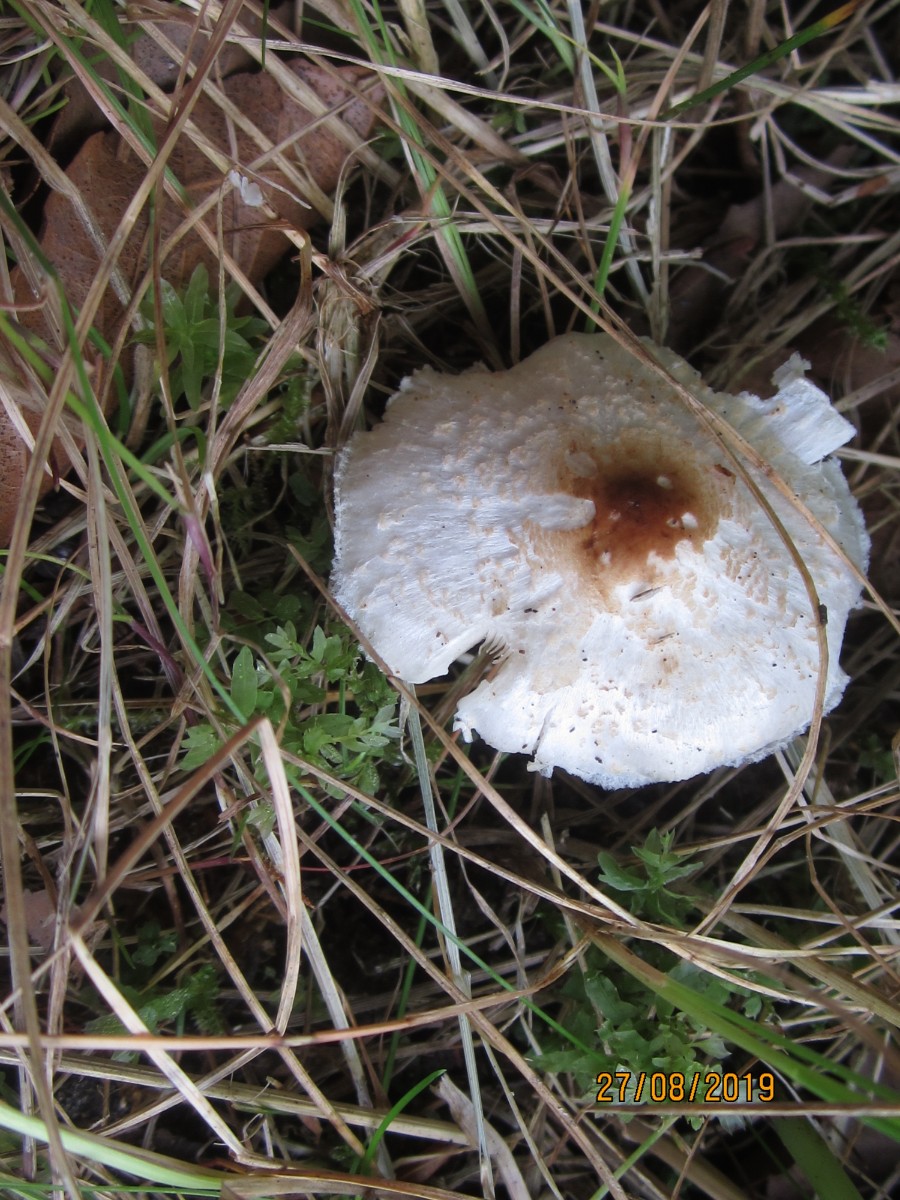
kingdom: Fungi
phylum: Basidiomycota
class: Agaricomycetes
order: Agaricales
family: Agaricaceae
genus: Lepiota
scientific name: Lepiota cristata
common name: stinkende parasolhat
